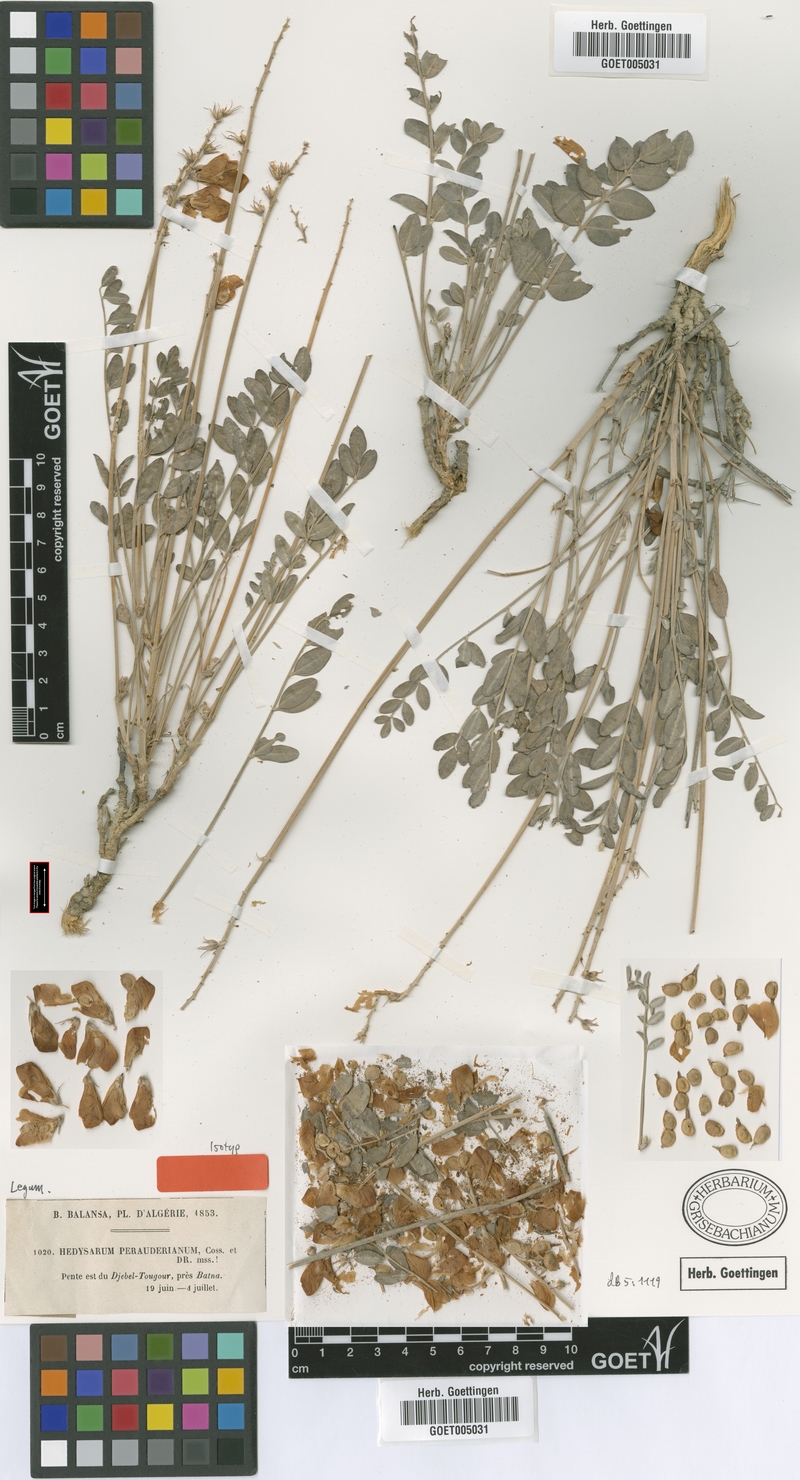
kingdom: Plantae
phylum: Tracheophyta
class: Magnoliopsida
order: Fabales
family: Fabaceae
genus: Hedysarum
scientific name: Hedysarum perrauderianum
